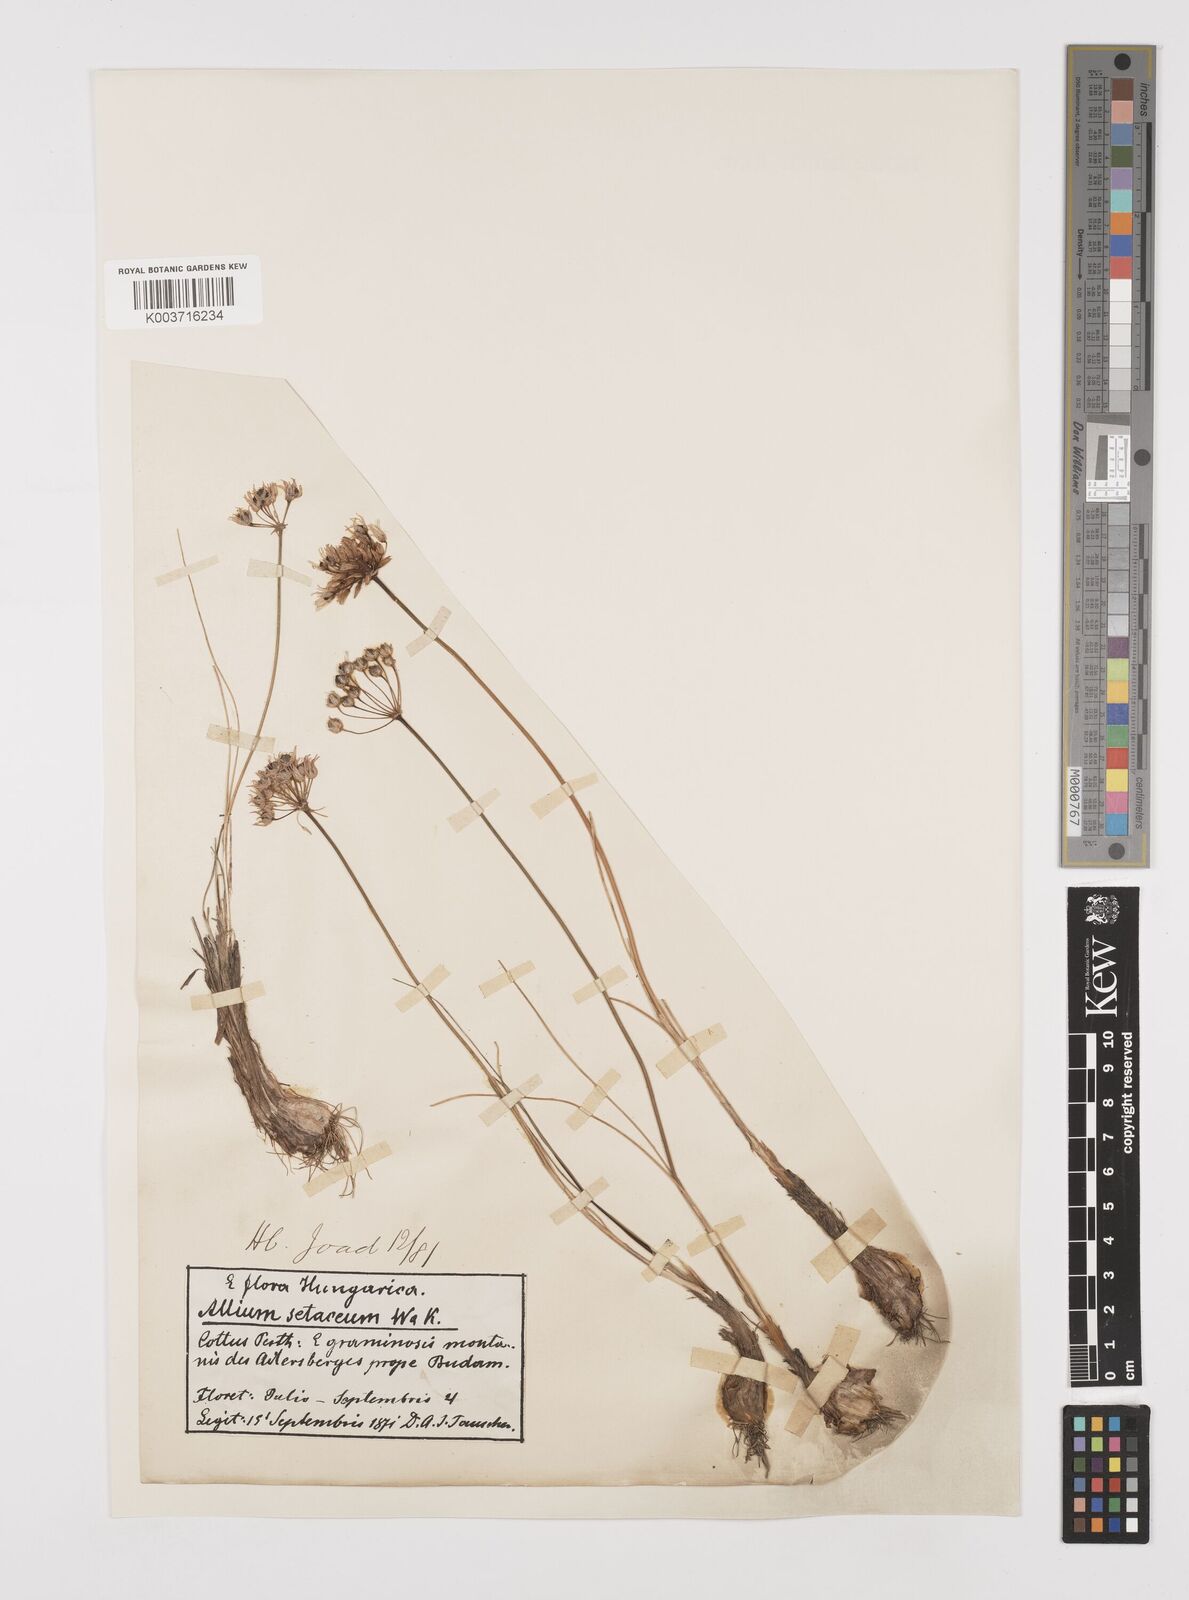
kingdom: Plantae
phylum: Tracheophyta
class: Liliopsida
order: Asparagales
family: Amaryllidaceae
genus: Allium
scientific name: Allium moschatum
